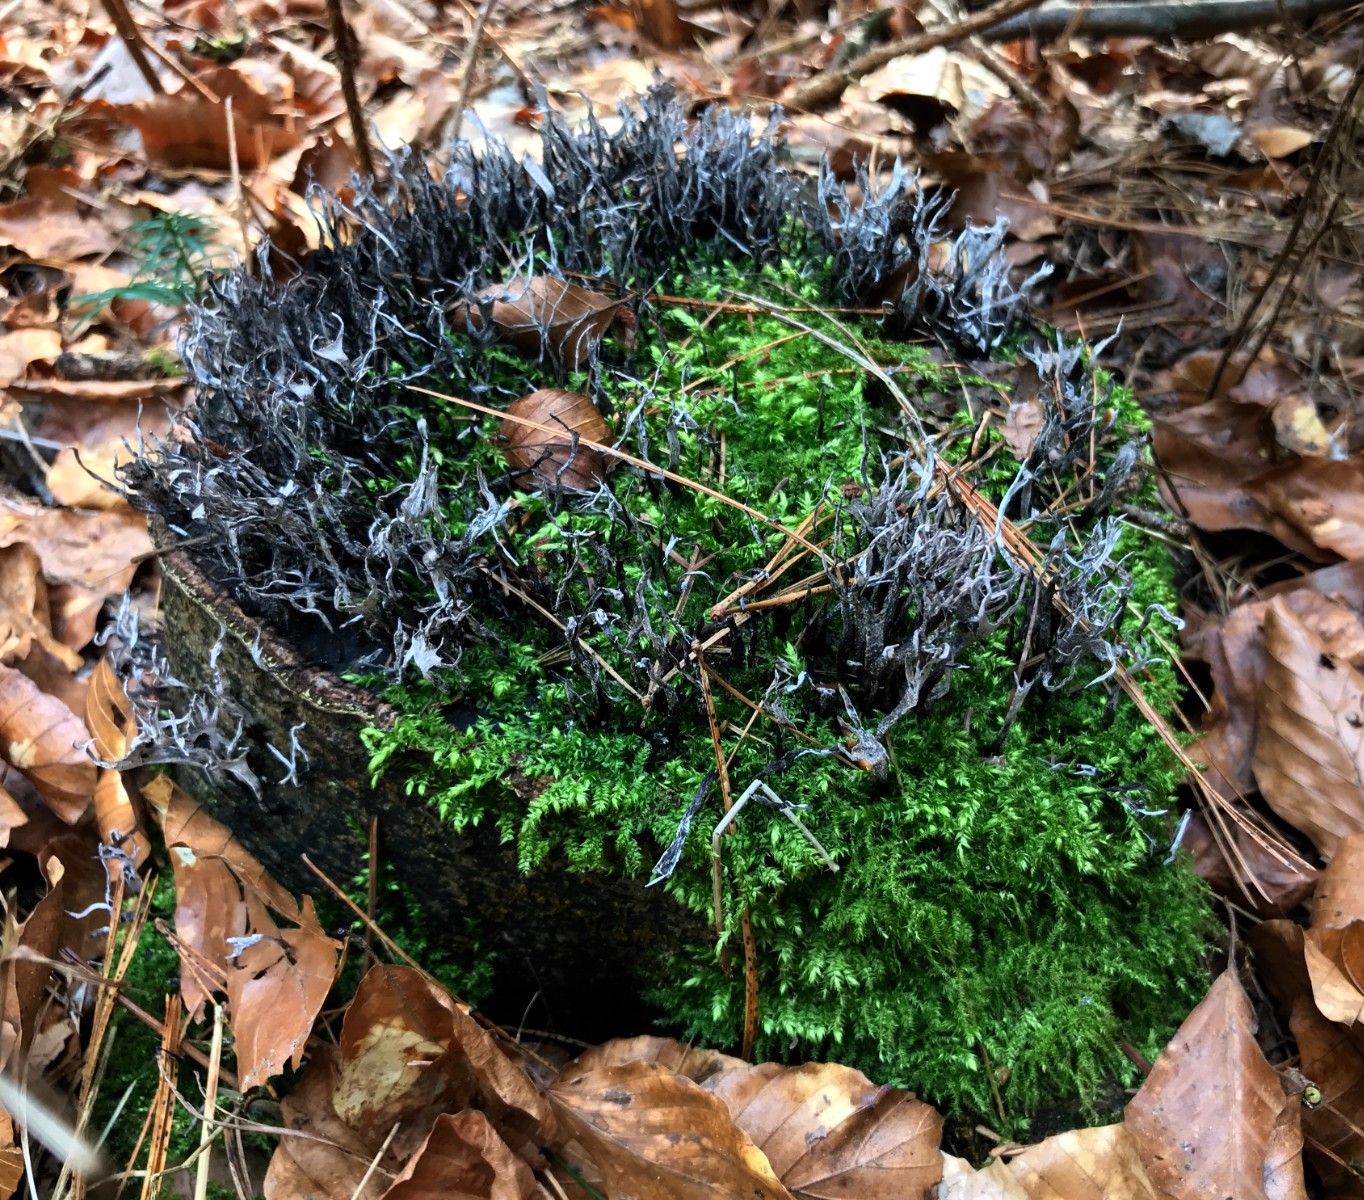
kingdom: Fungi
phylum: Ascomycota
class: Sordariomycetes
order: Xylariales
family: Xylariaceae
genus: Xylaria
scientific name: Xylaria hypoxylon
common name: grenet stødsvamp
